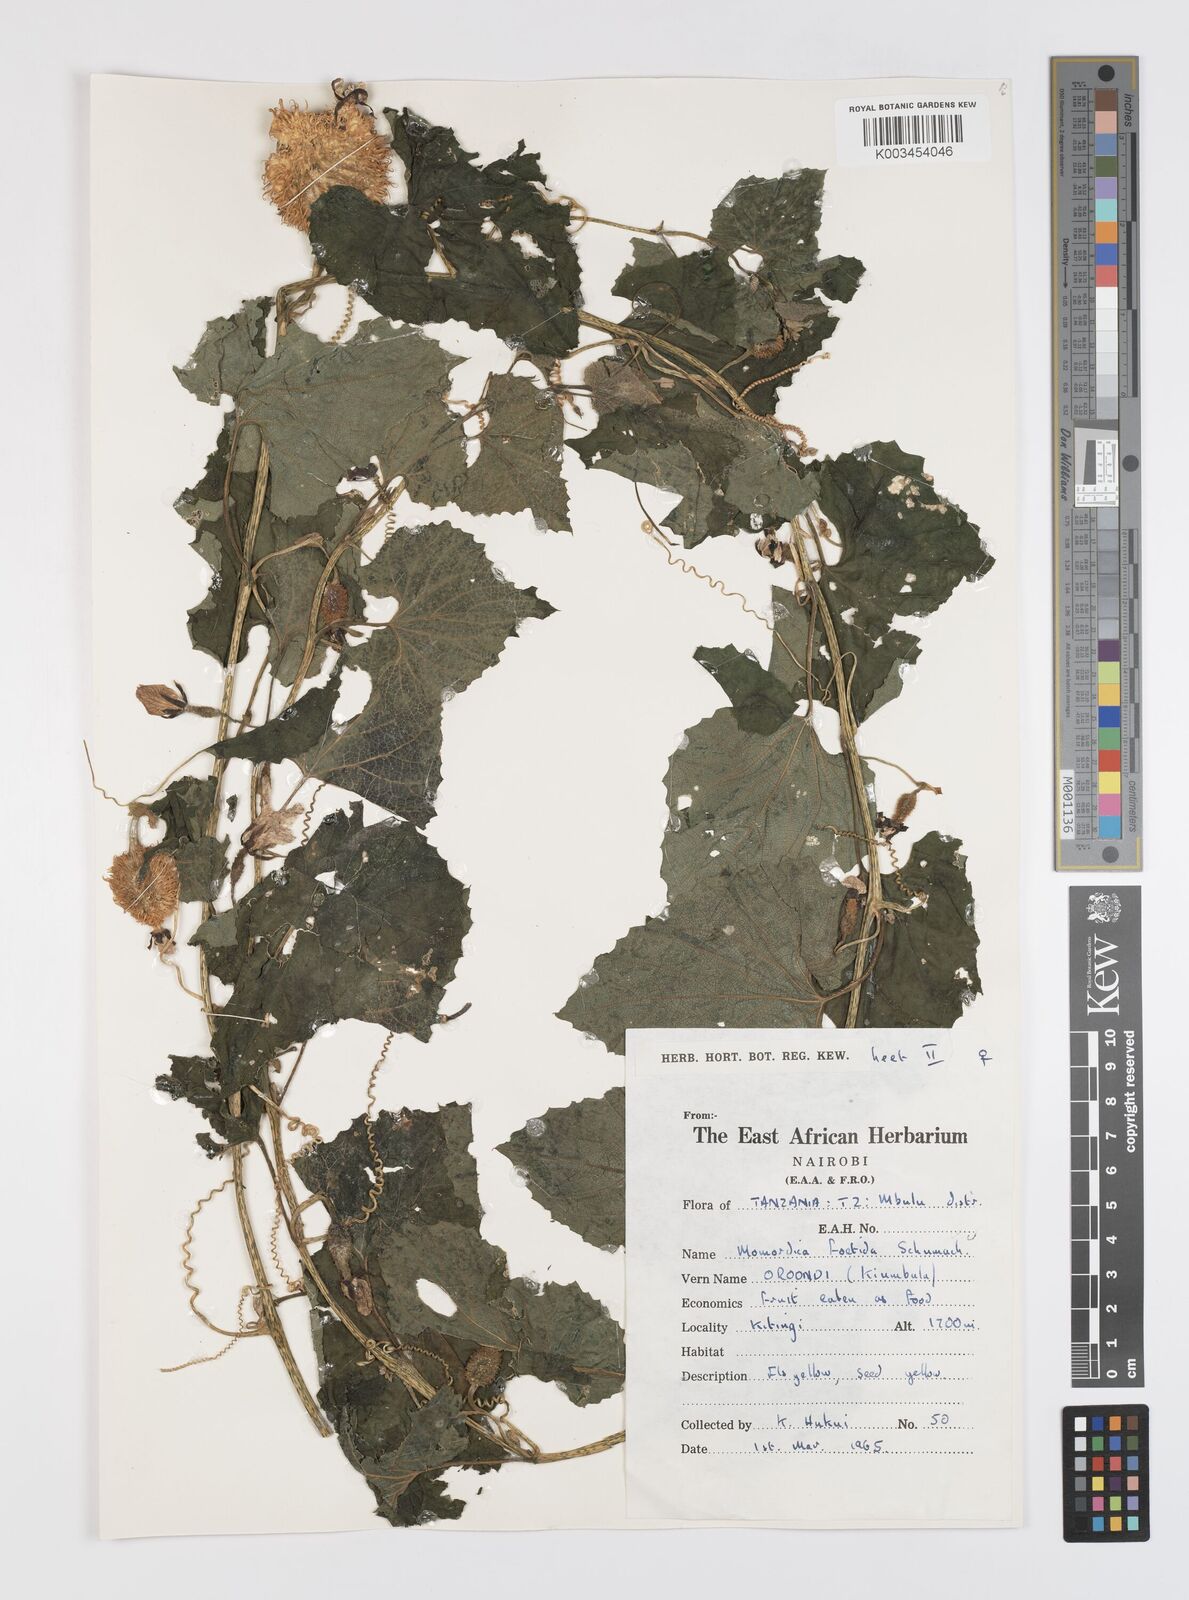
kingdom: Plantae
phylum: Tracheophyta
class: Magnoliopsida
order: Cucurbitales
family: Cucurbitaceae
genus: Momordica
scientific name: Momordica foetida
